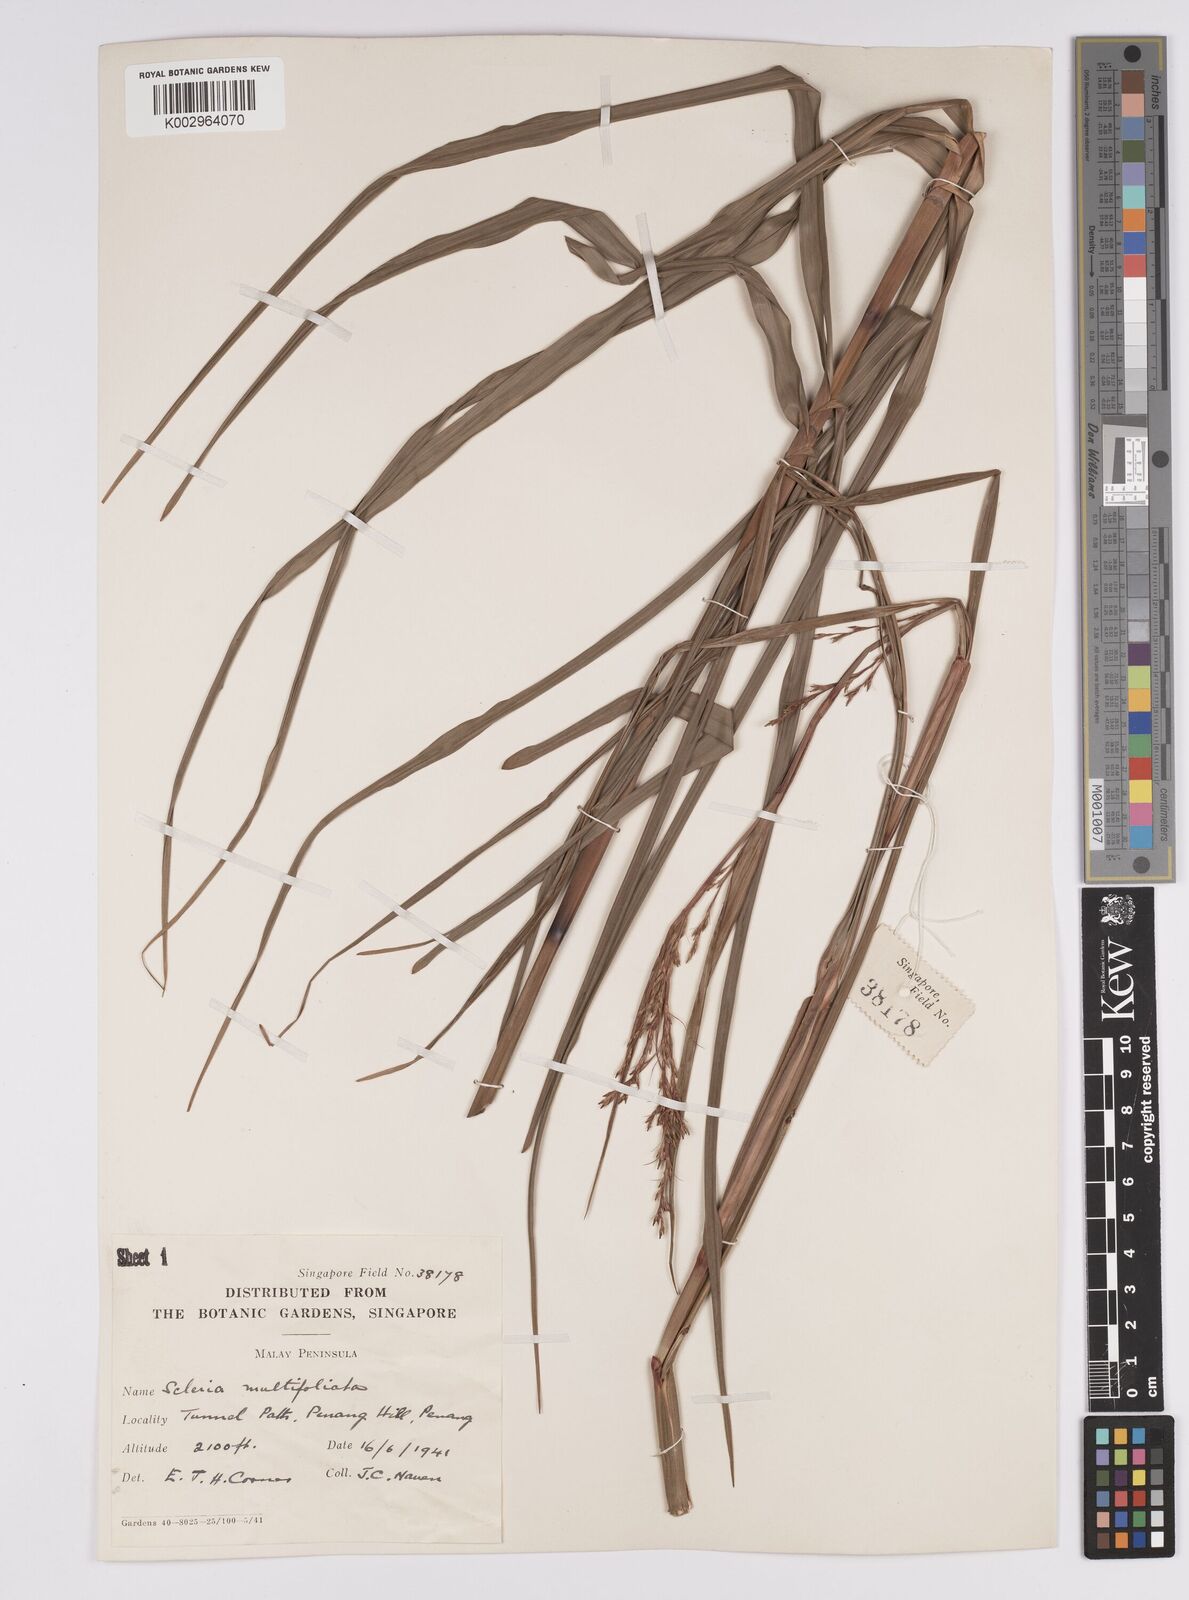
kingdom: Plantae
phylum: Tracheophyta
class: Liliopsida
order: Poales
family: Cyperaceae
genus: Scleria
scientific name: Scleria purpurascens
